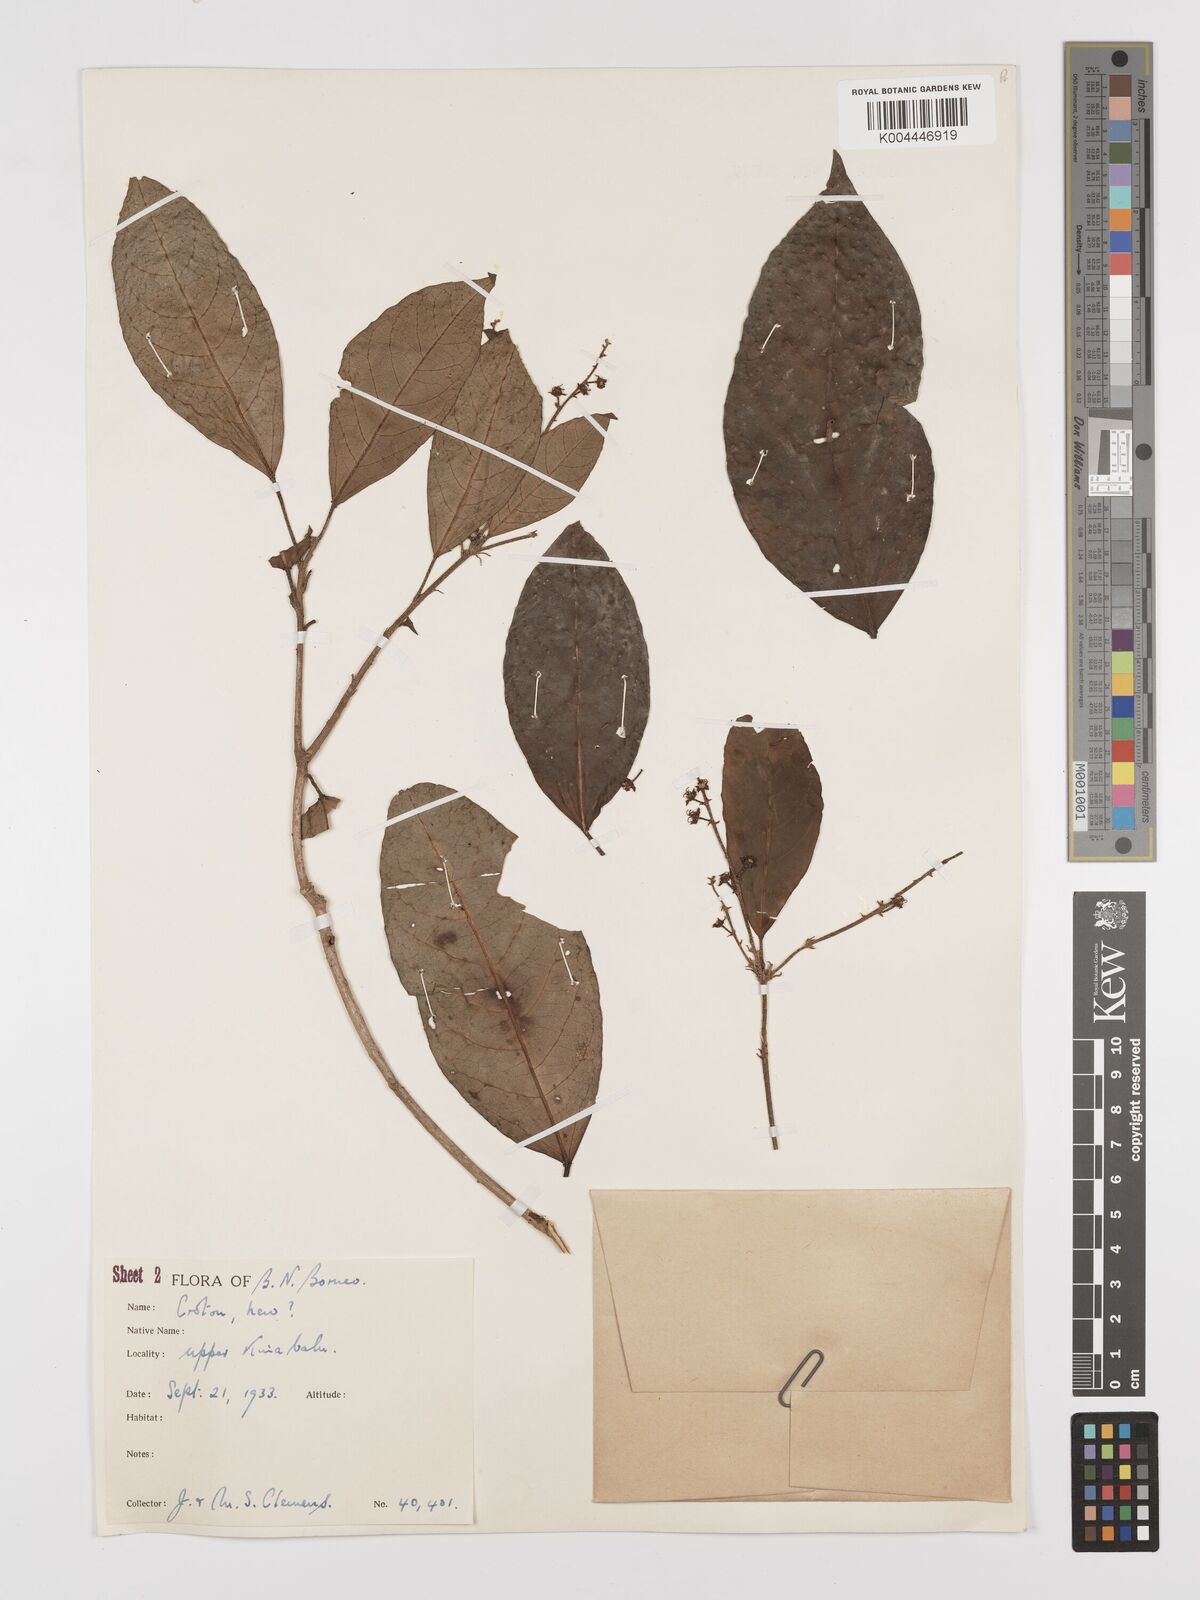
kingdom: Plantae
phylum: Tracheophyta
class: Magnoliopsida
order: Malpighiales
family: Euphorbiaceae
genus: Croton
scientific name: Croton
